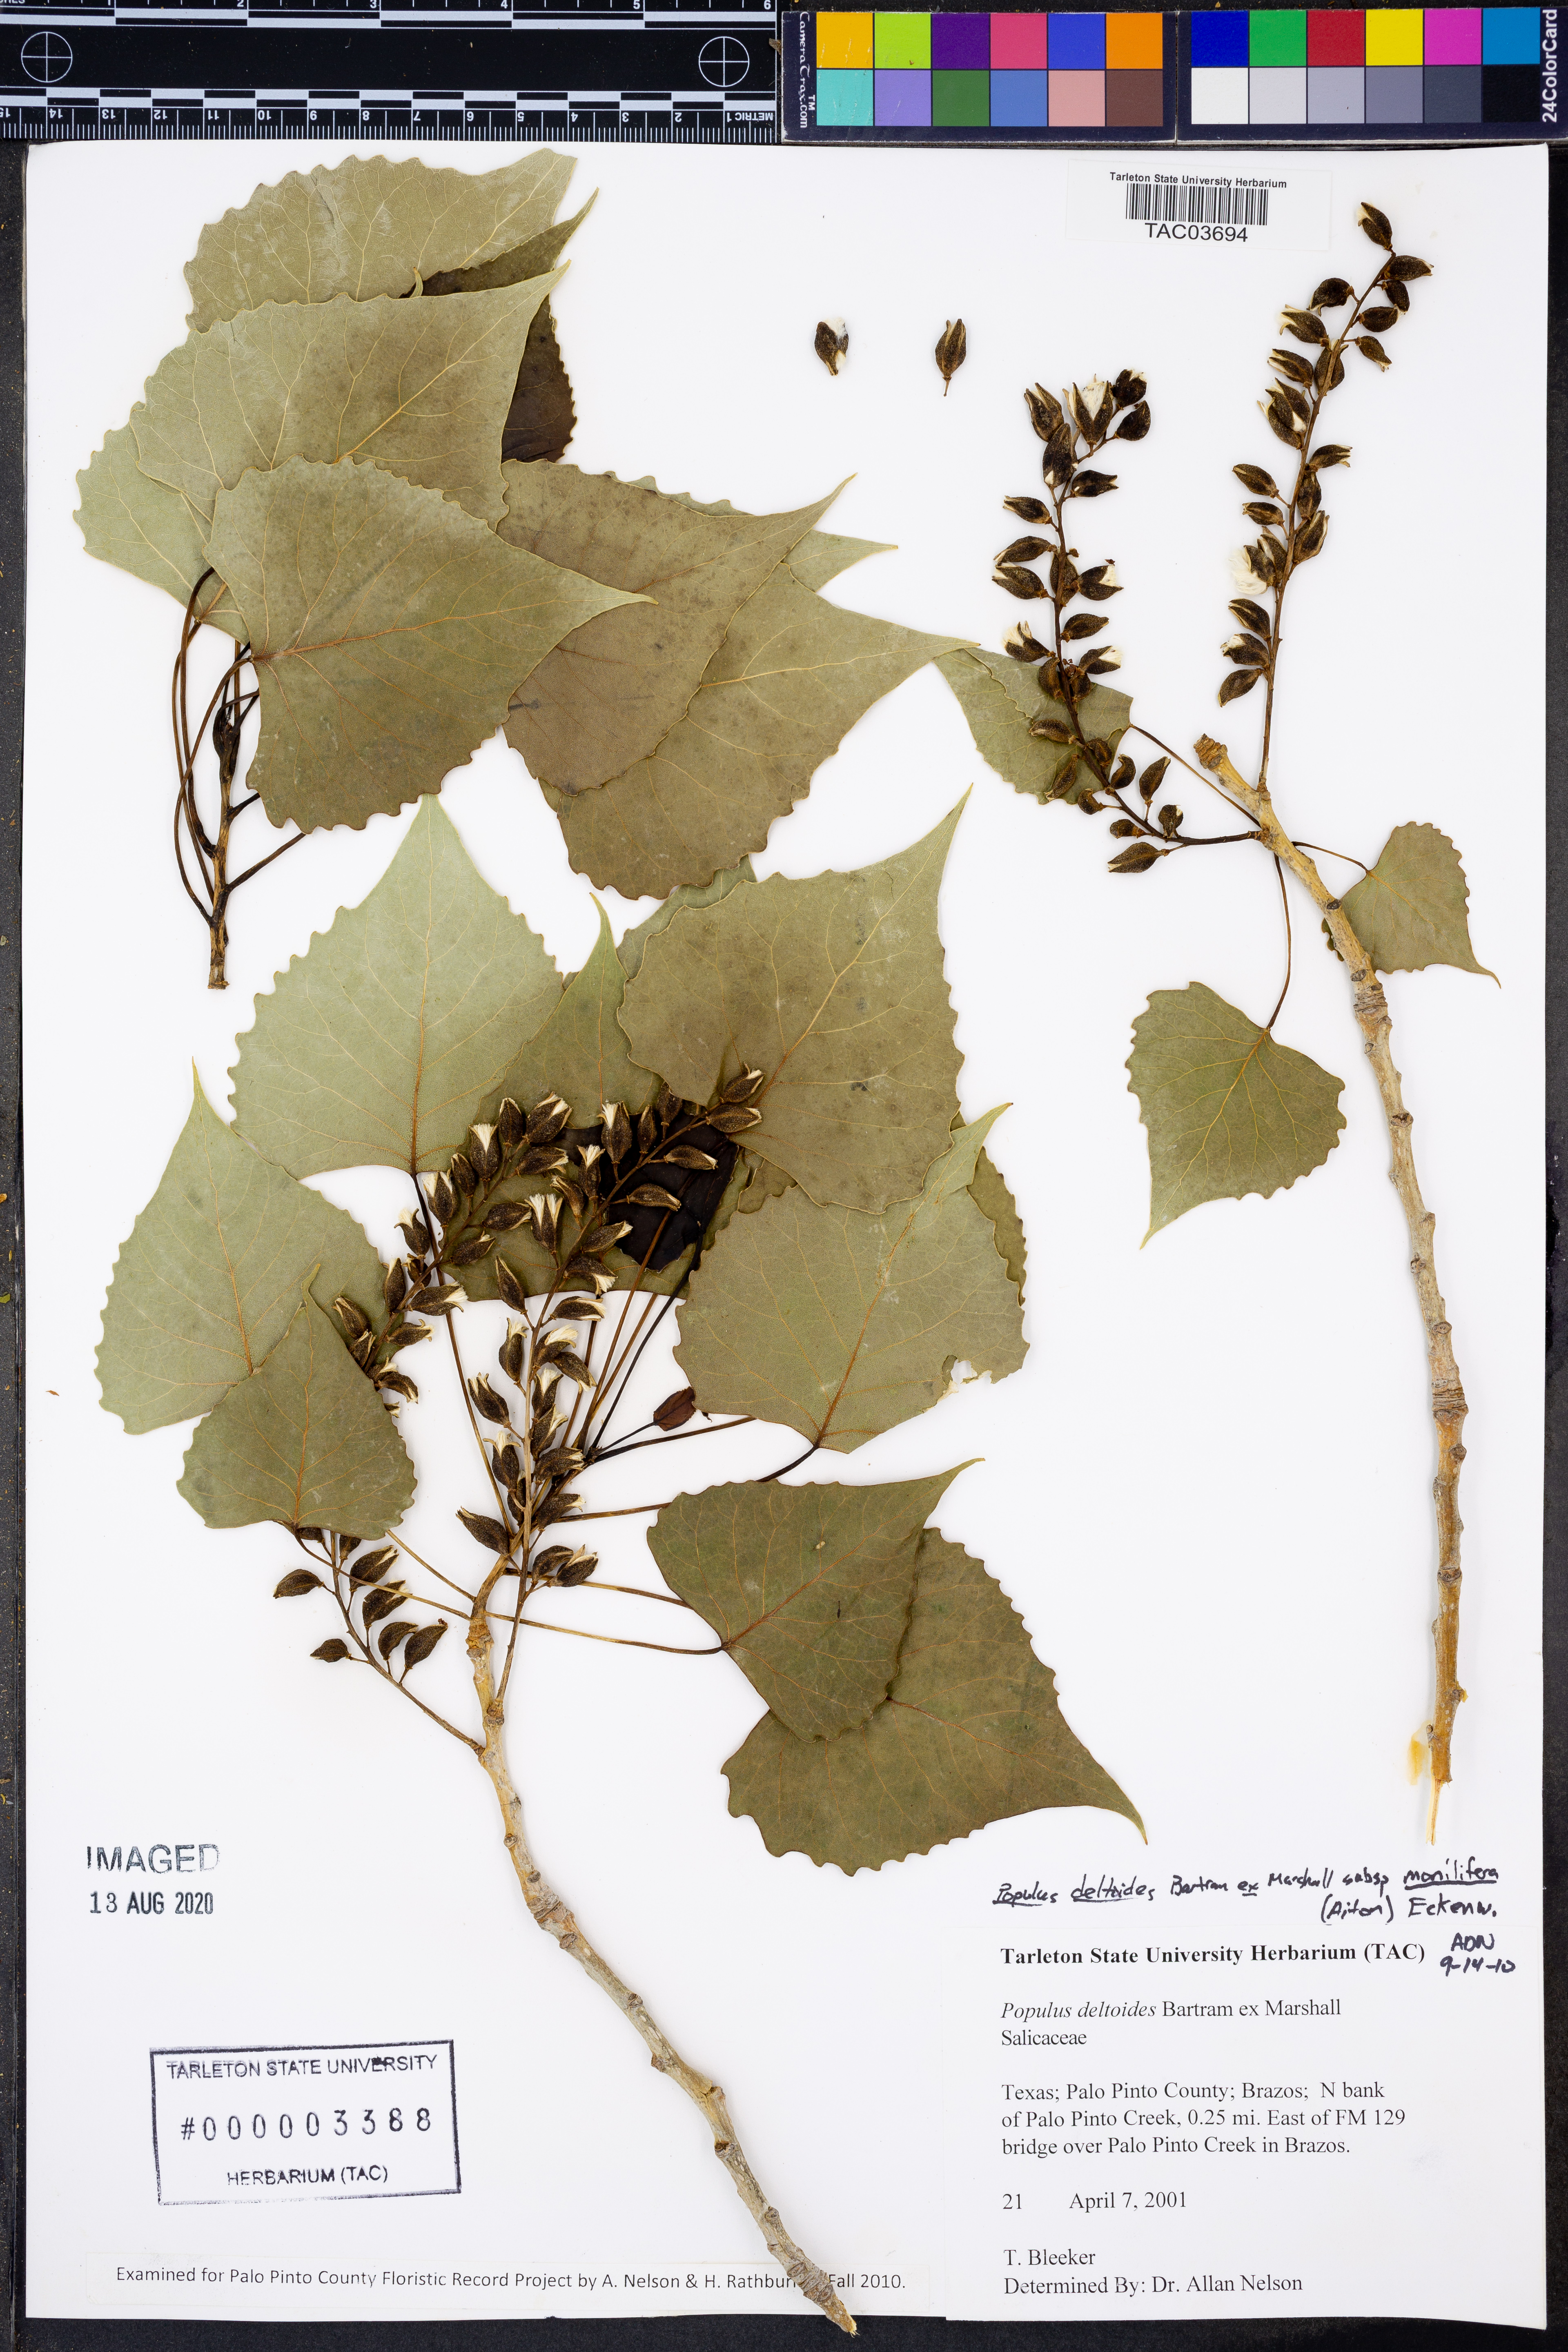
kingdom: Plantae
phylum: Tracheophyta
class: Magnoliopsida
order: Malpighiales
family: Salicaceae
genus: Populus
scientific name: Populus deltoides
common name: Eastern cottonwood
